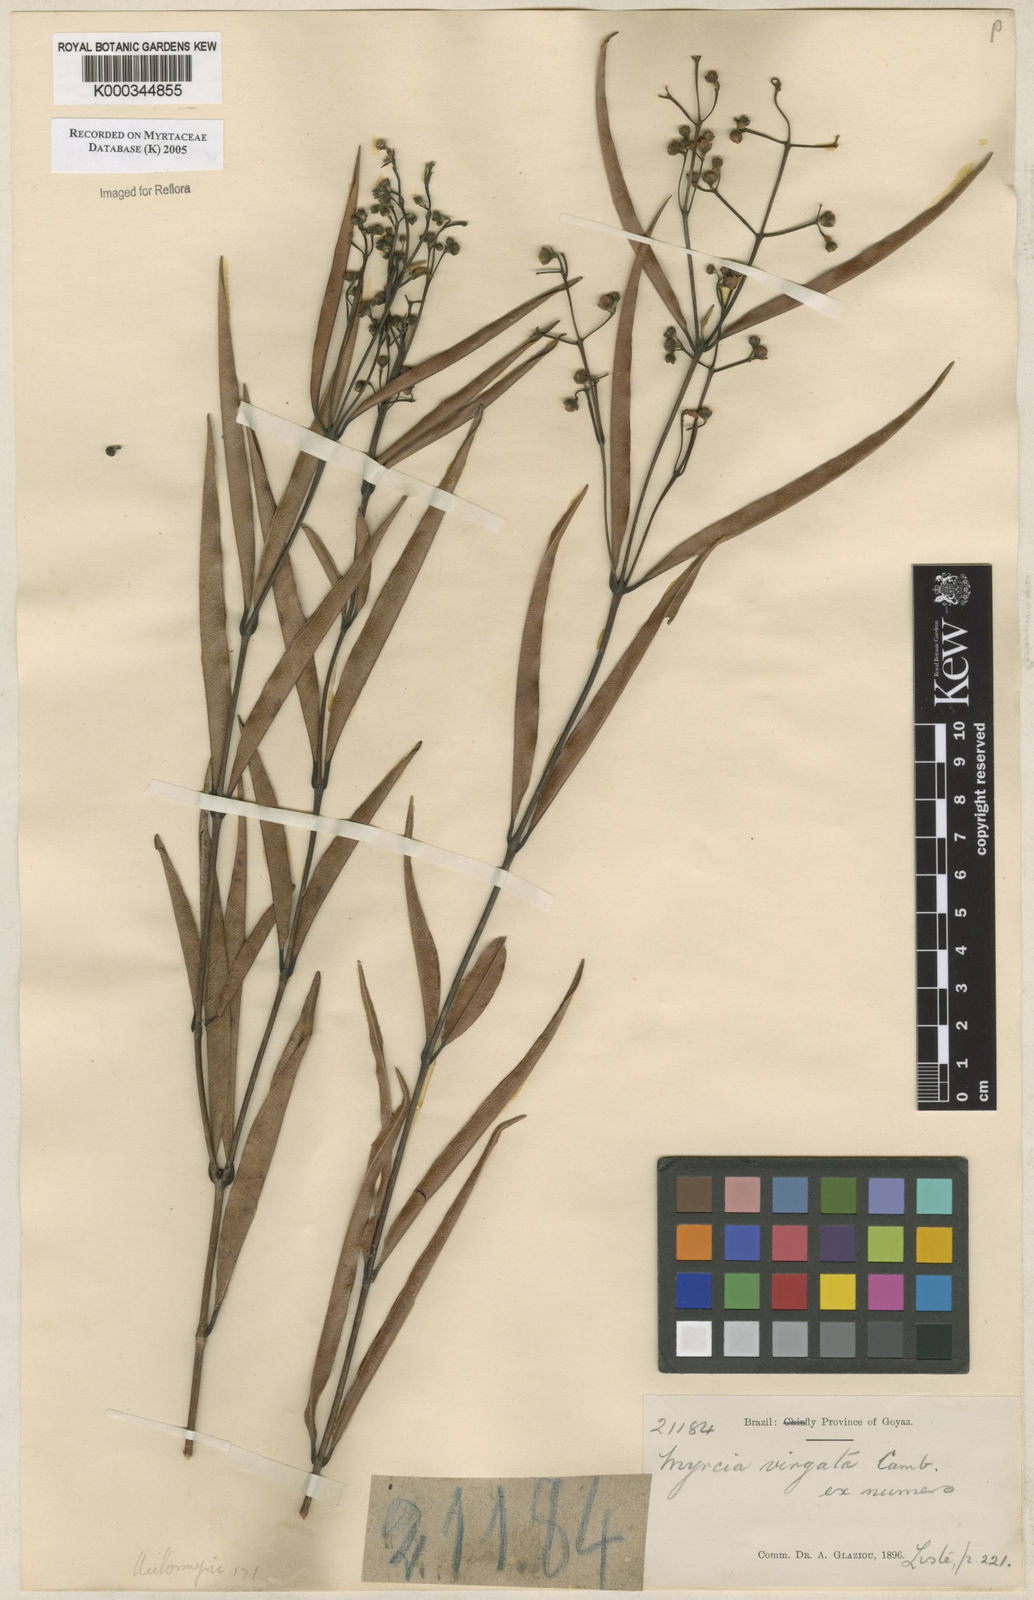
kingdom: Plantae
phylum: Tracheophyta
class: Magnoliopsida
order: Myrtales
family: Myrtaceae
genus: Myrcia
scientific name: Myrcia virgata
